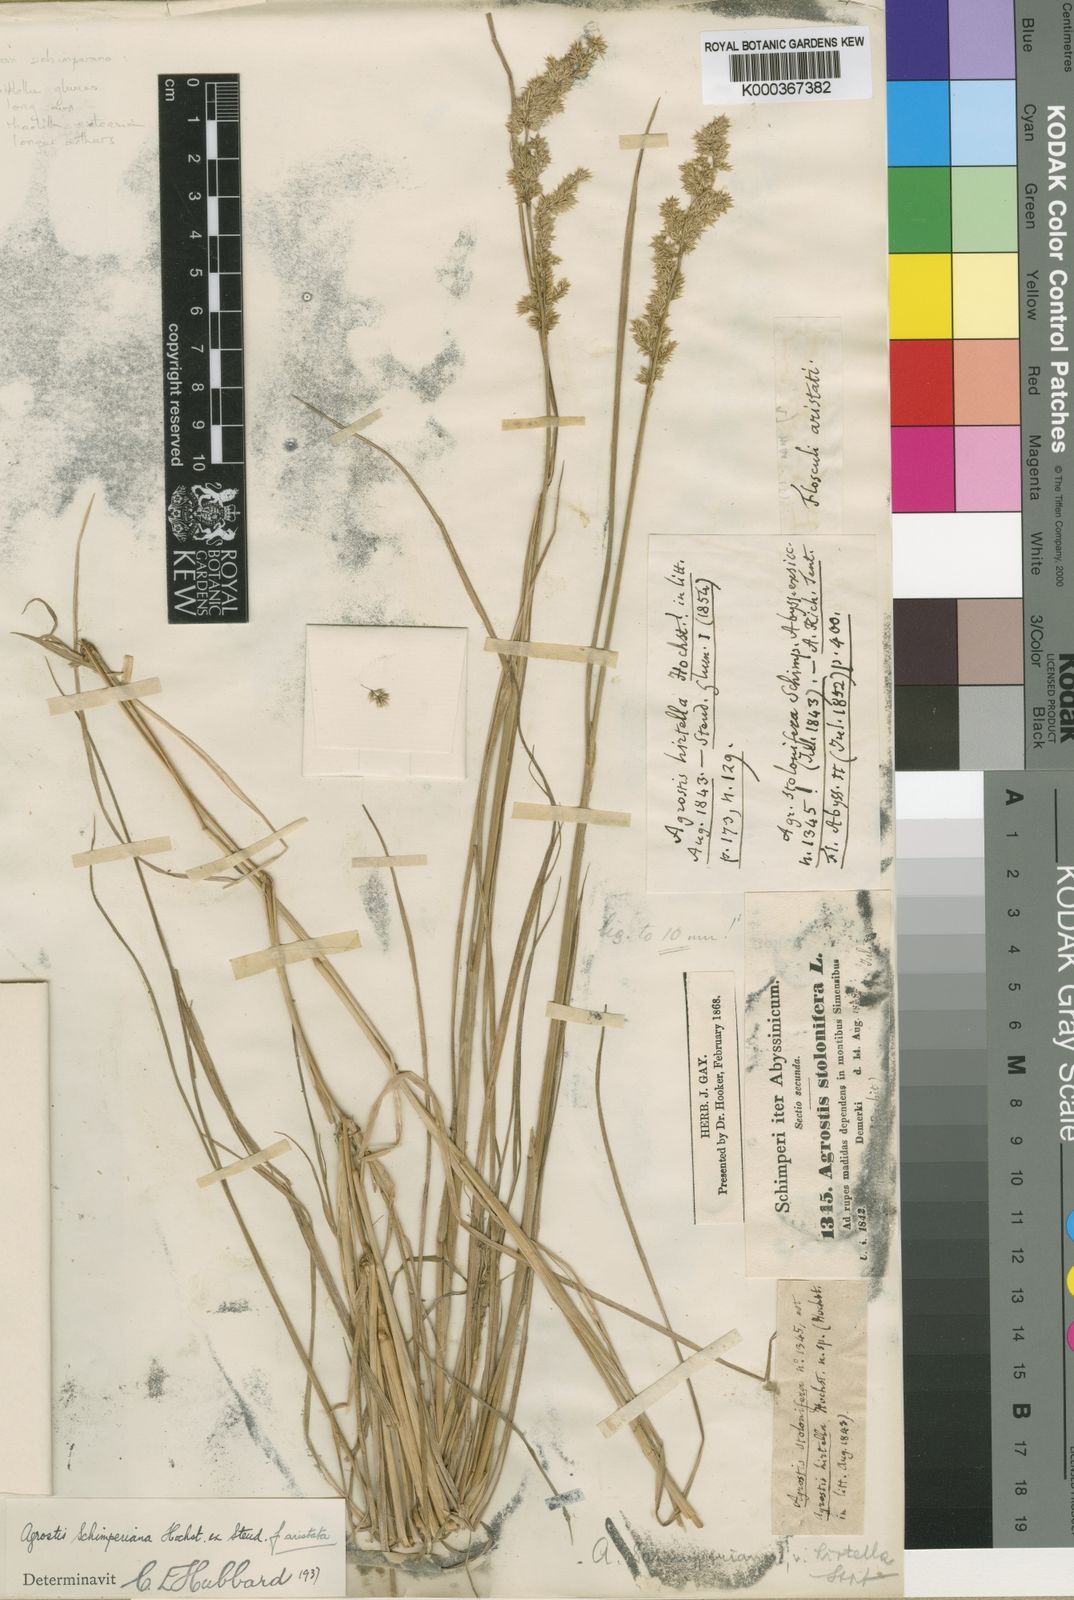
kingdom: Plantae
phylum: Tracheophyta
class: Liliopsida
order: Poales
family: Poaceae
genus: Polypogon
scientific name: Polypogon schimperianus
